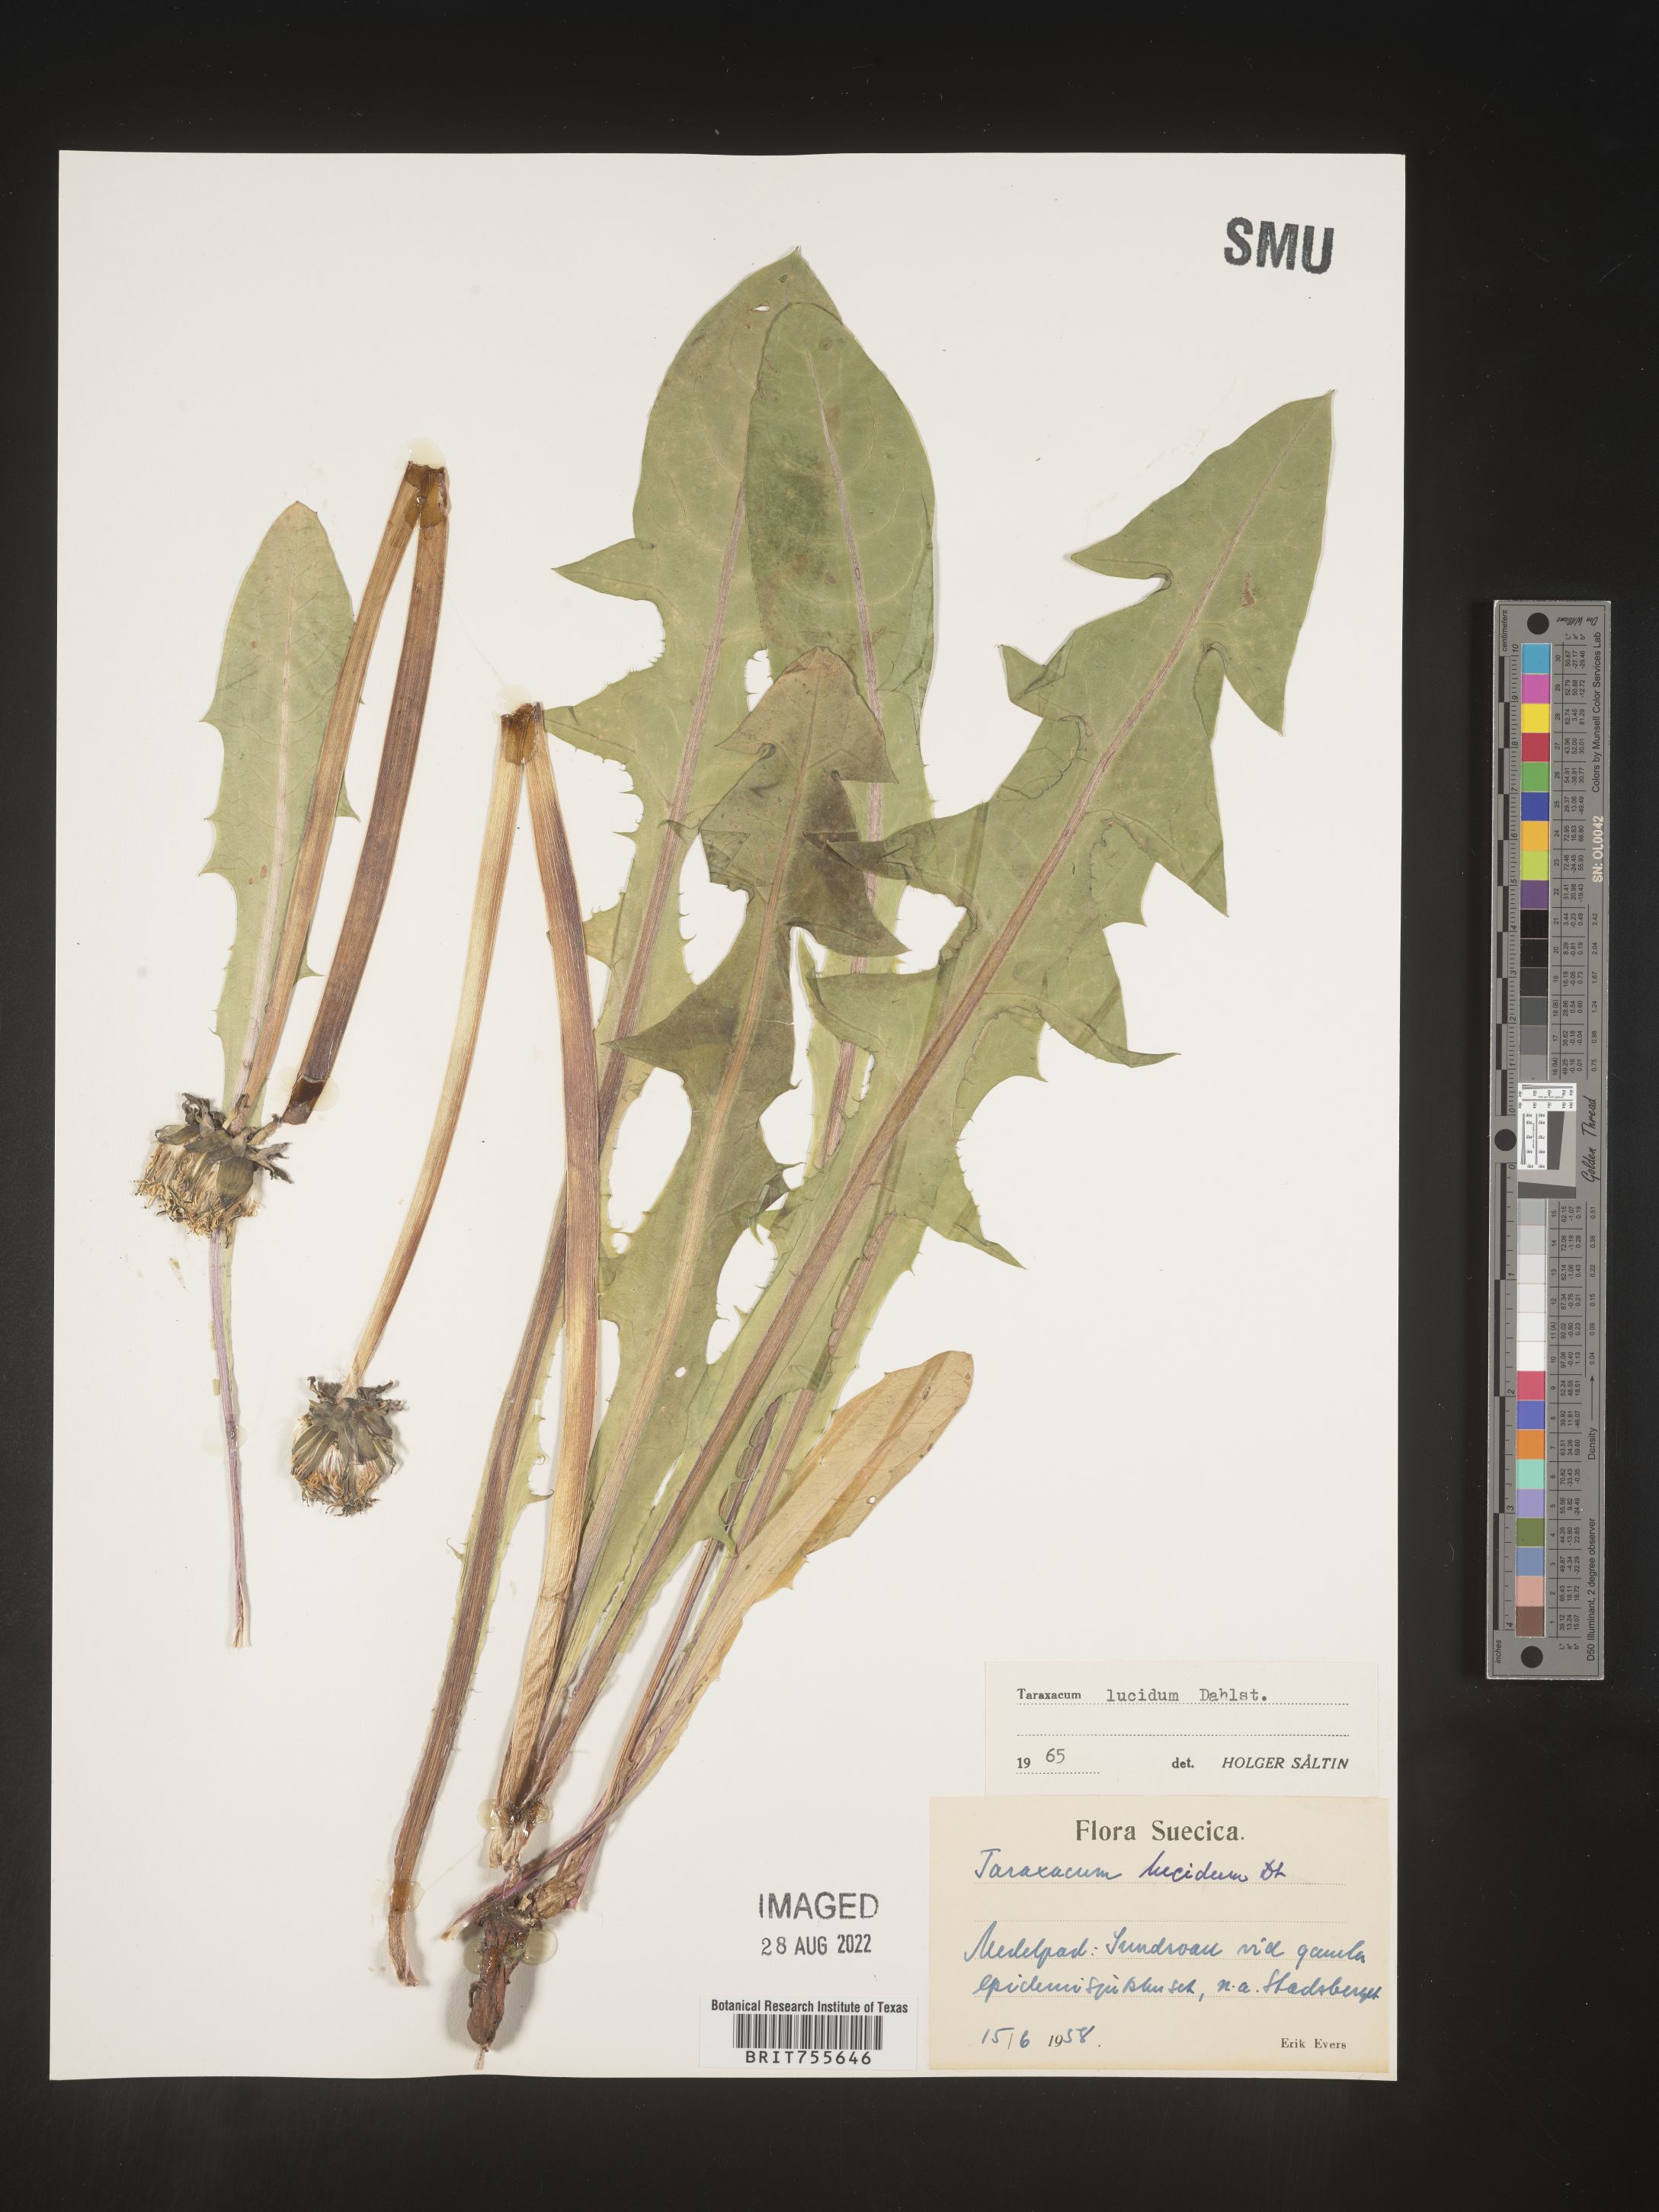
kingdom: Plantae
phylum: Tracheophyta
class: Magnoliopsida
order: Asterales
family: Asteraceae
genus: Taraxacum
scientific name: Taraxacum
